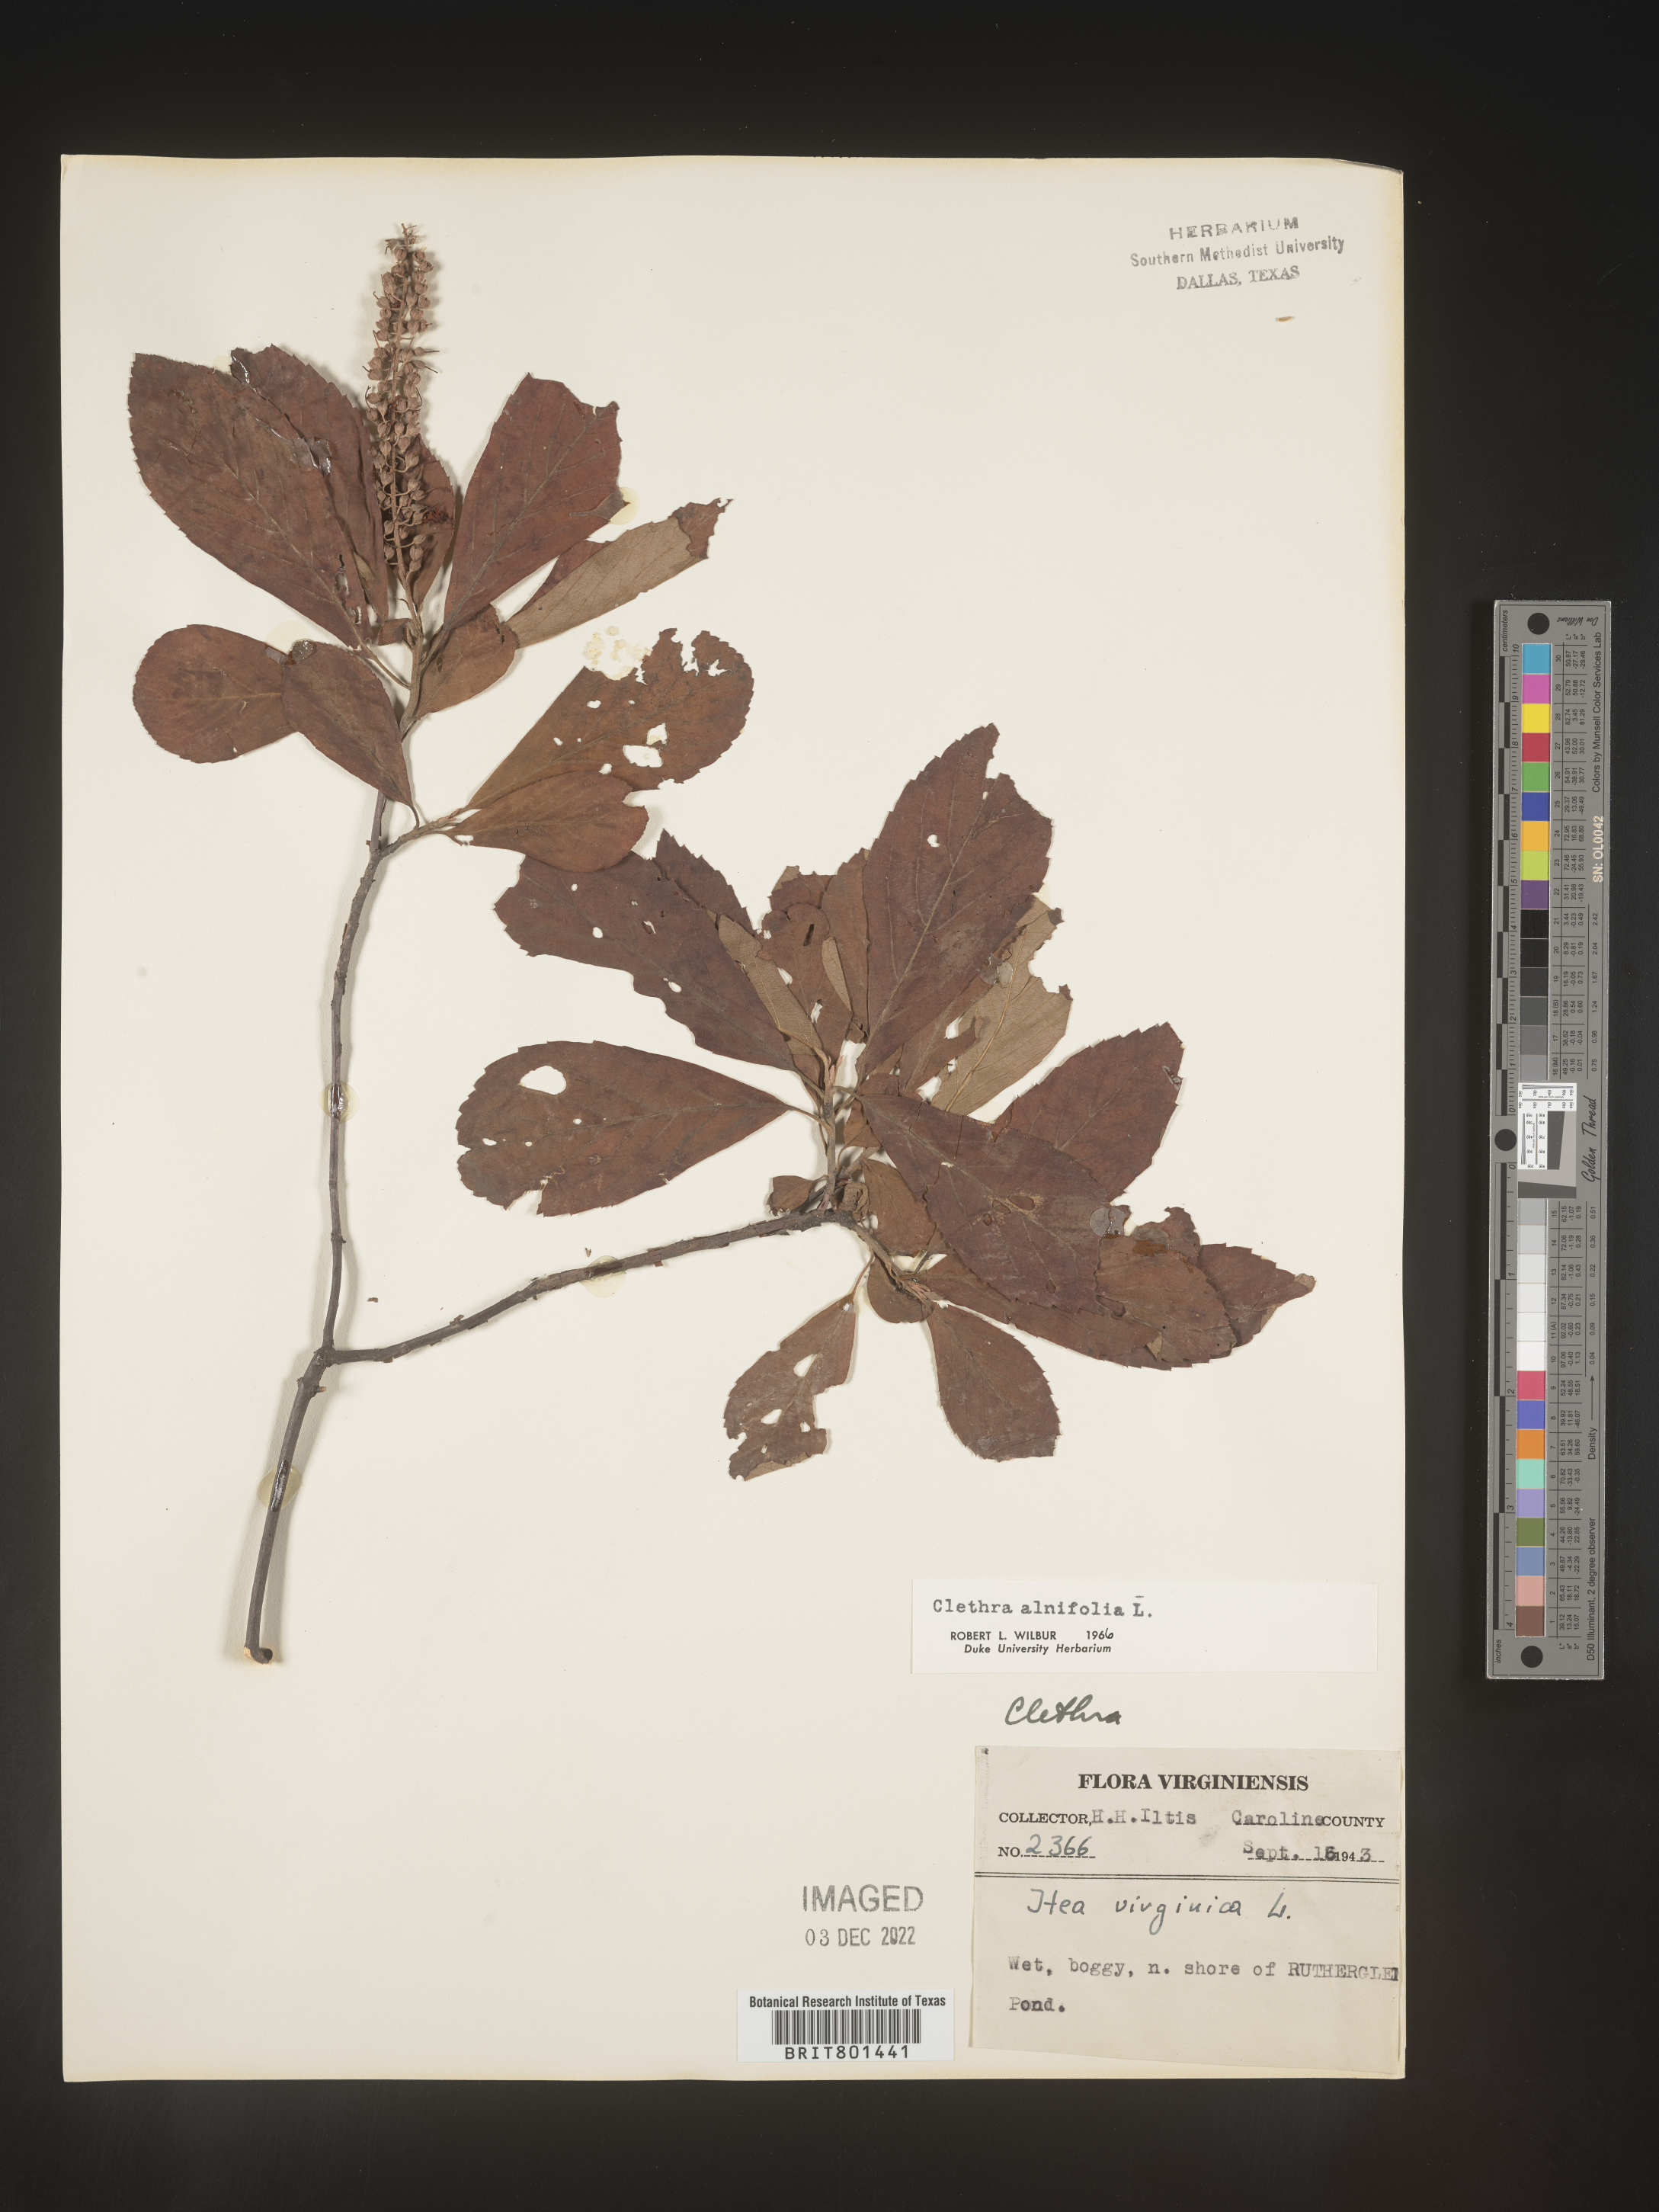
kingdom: Plantae
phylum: Tracheophyta
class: Magnoliopsida
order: Ericales
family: Clethraceae
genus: Clethra
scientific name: Clethra alnifolia
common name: Sweet pepperbush
